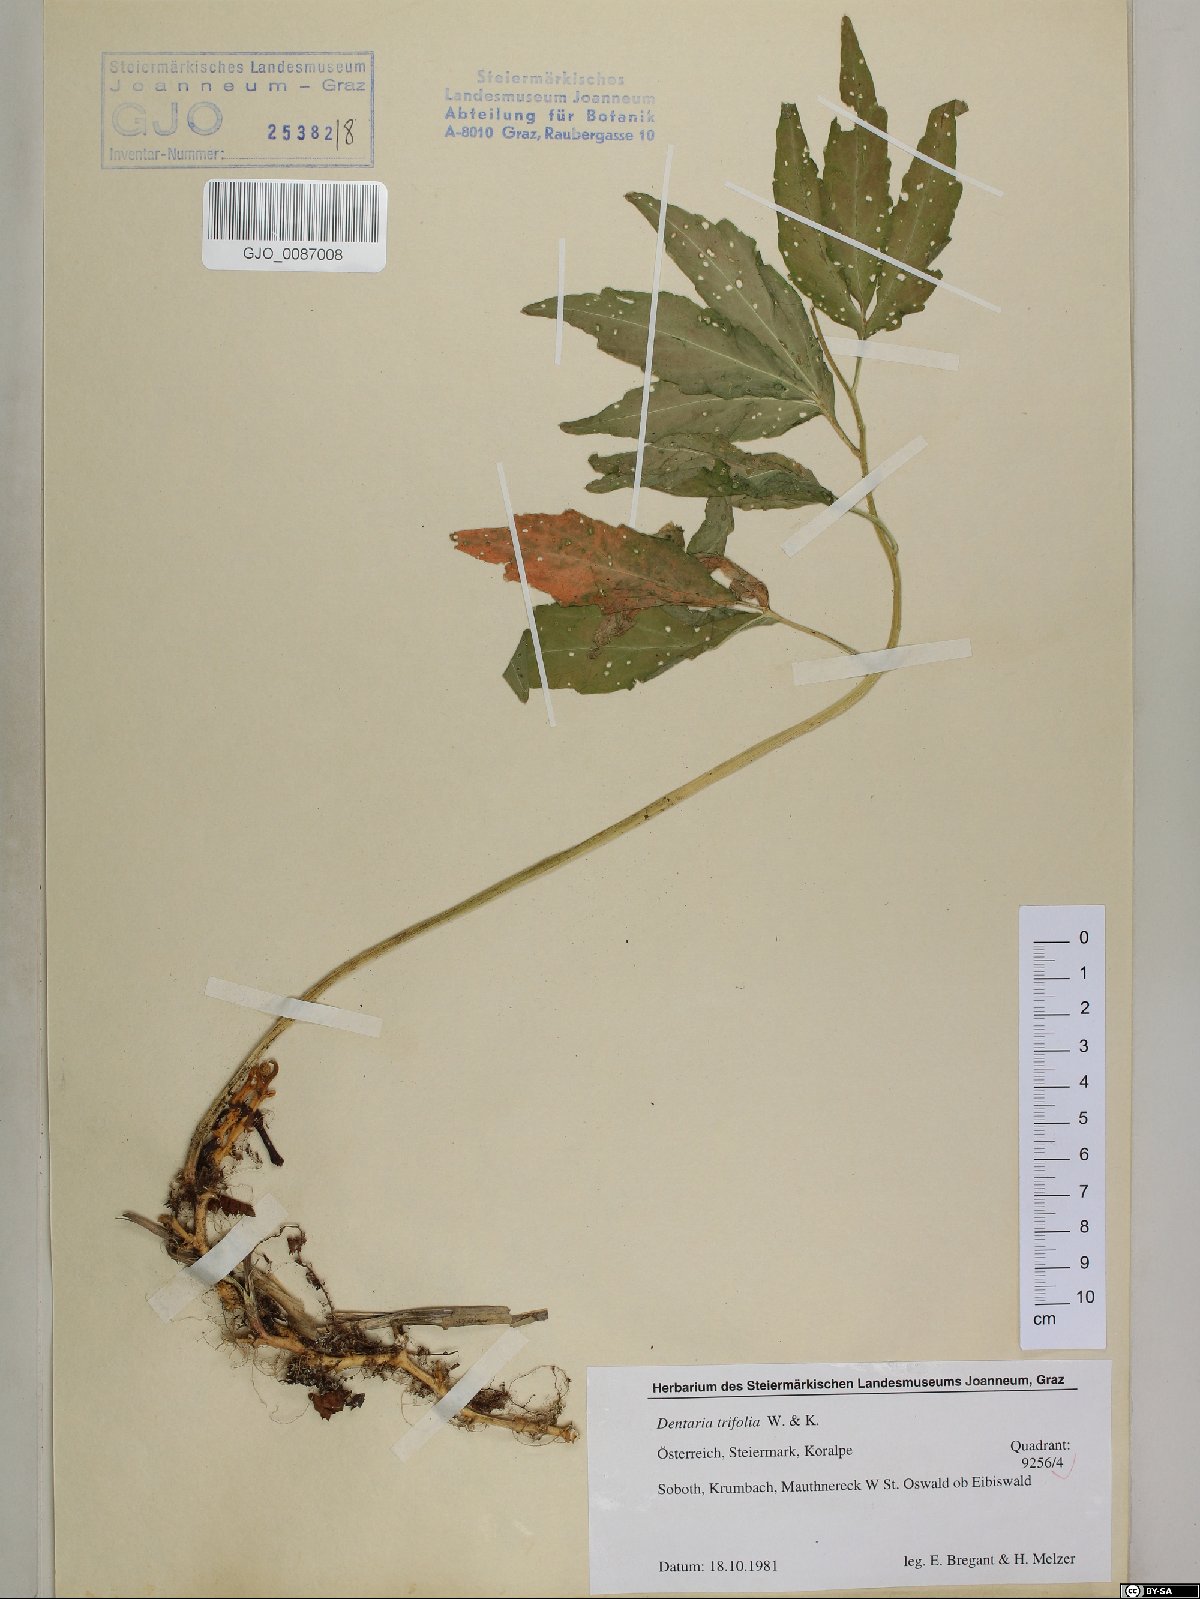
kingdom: Plantae
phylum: Tracheophyta
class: Magnoliopsida
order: Brassicales
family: Brassicaceae
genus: Cardamine
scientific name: Cardamine waldsteinii
